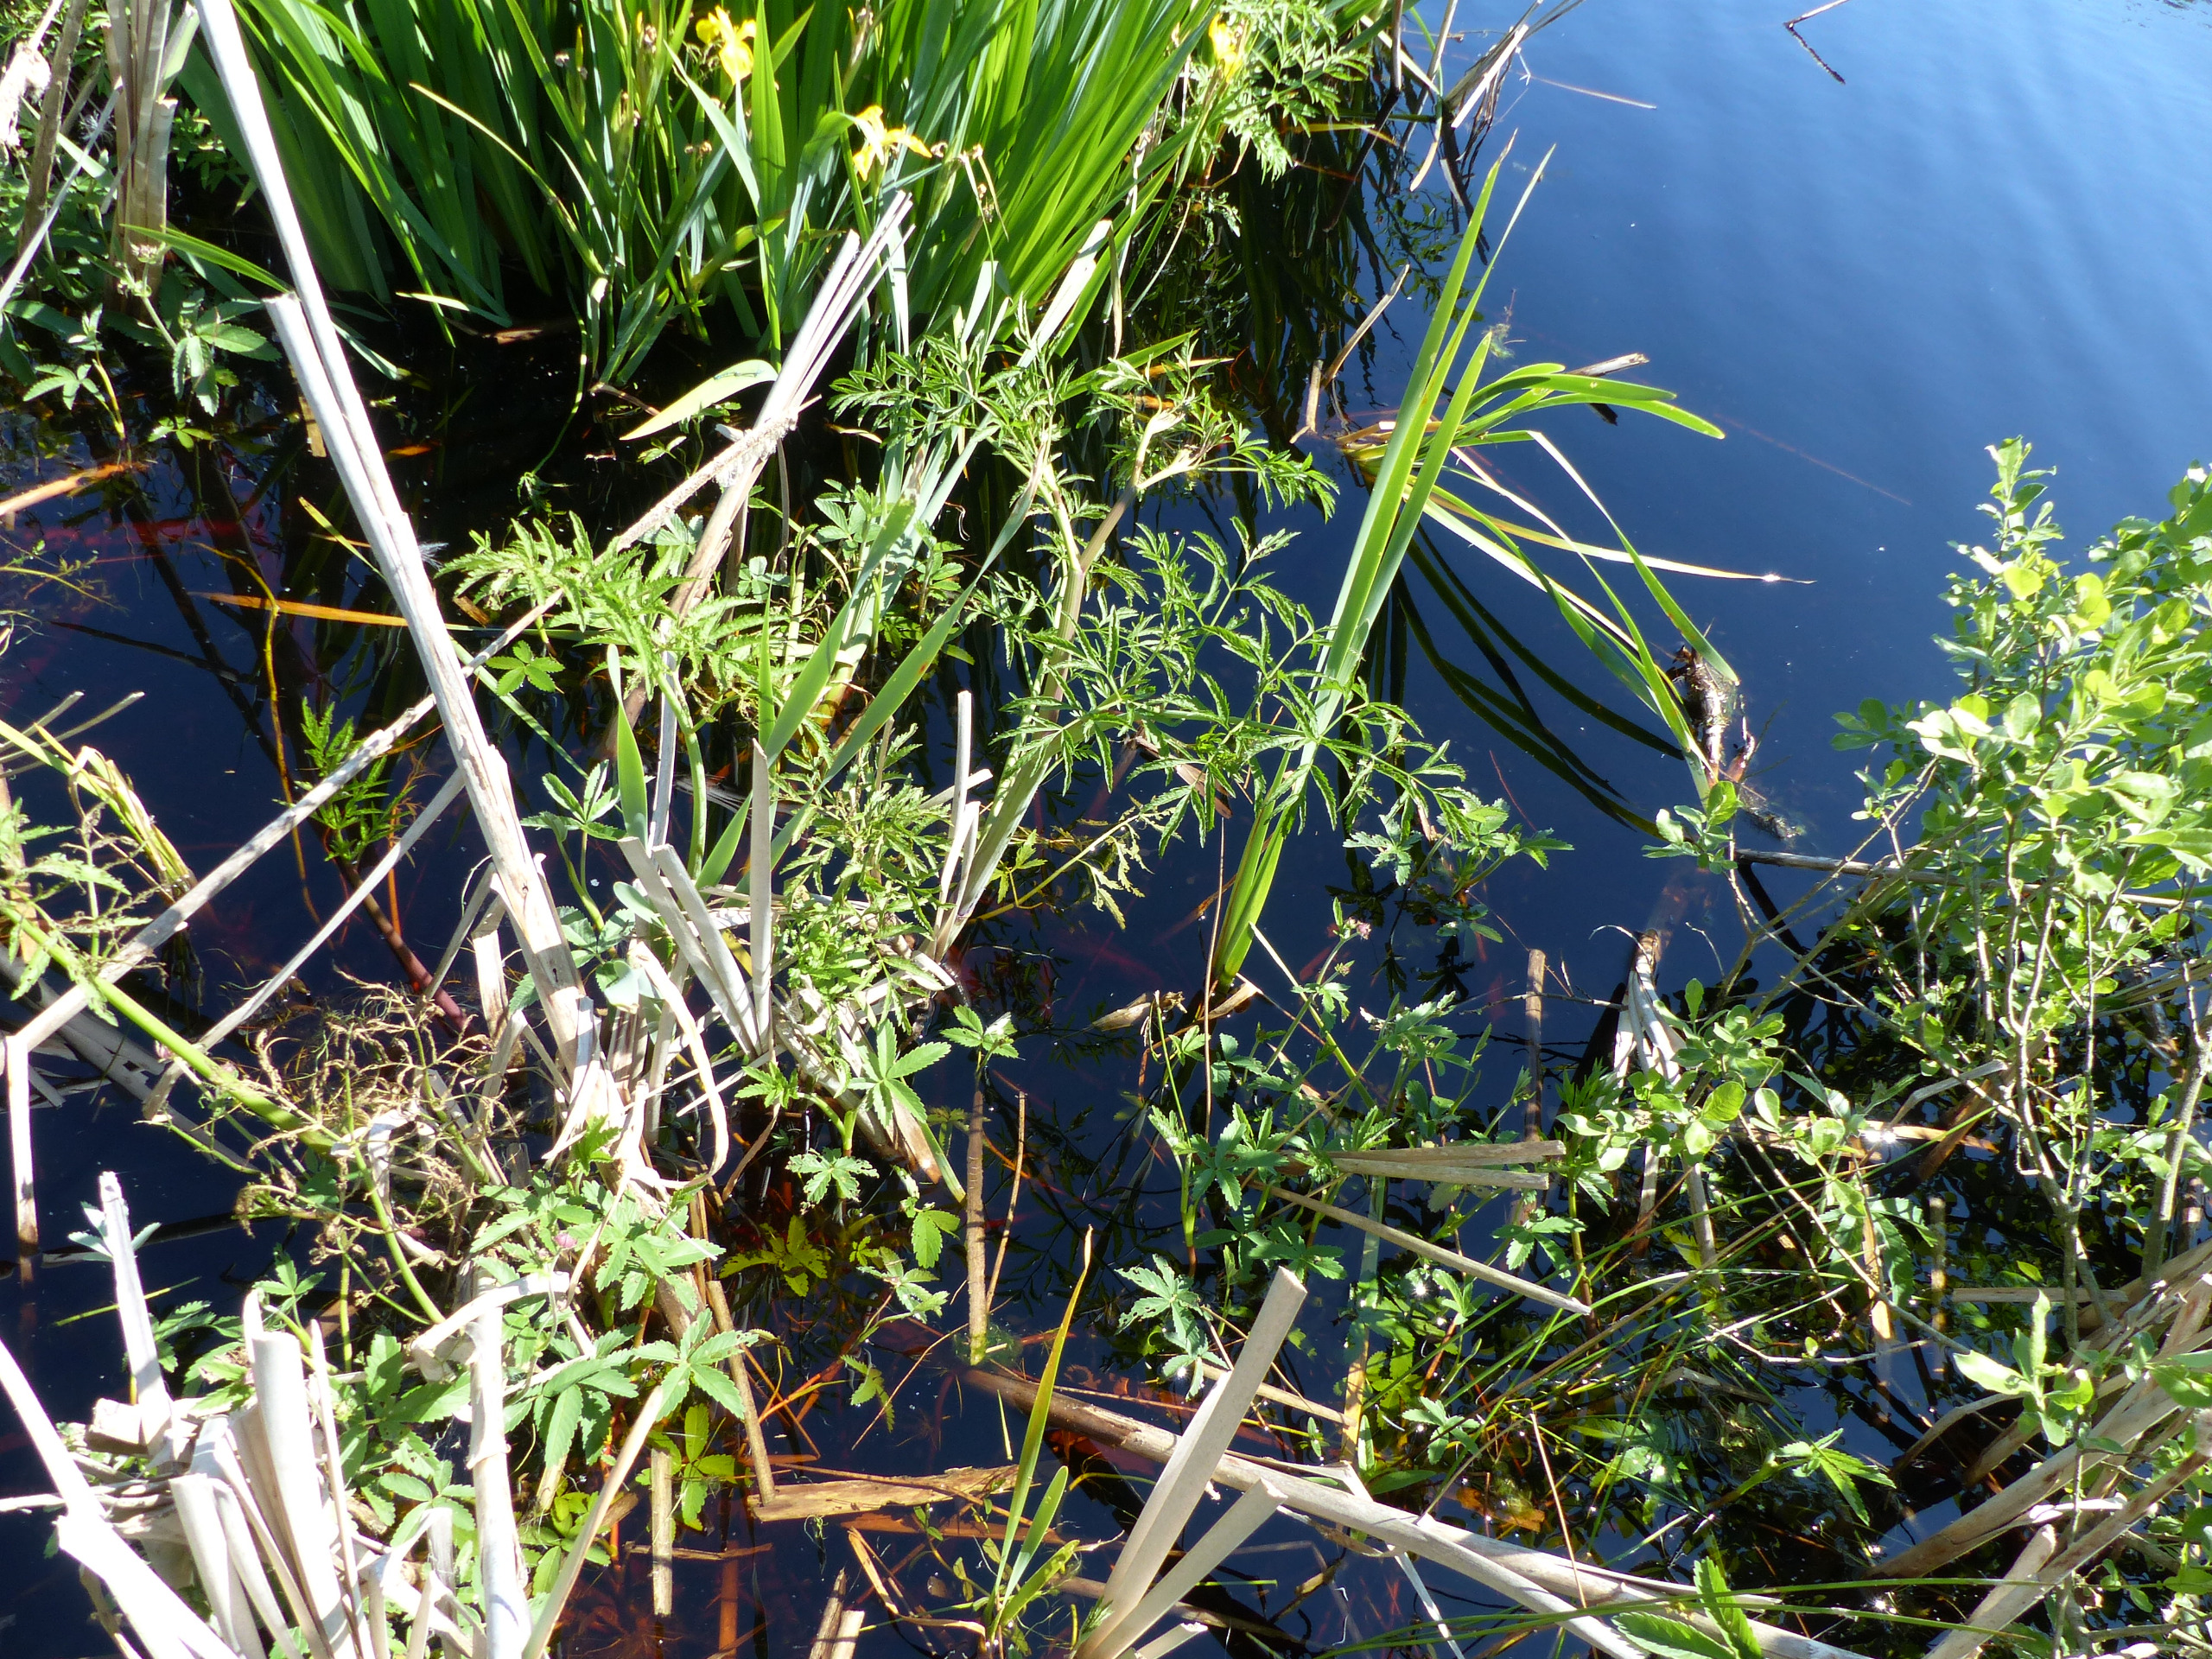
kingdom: Plantae
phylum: Tracheophyta
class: Magnoliopsida
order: Apiales
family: Apiaceae
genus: Cicuta
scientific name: Cicuta virosa
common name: Gifttyde
